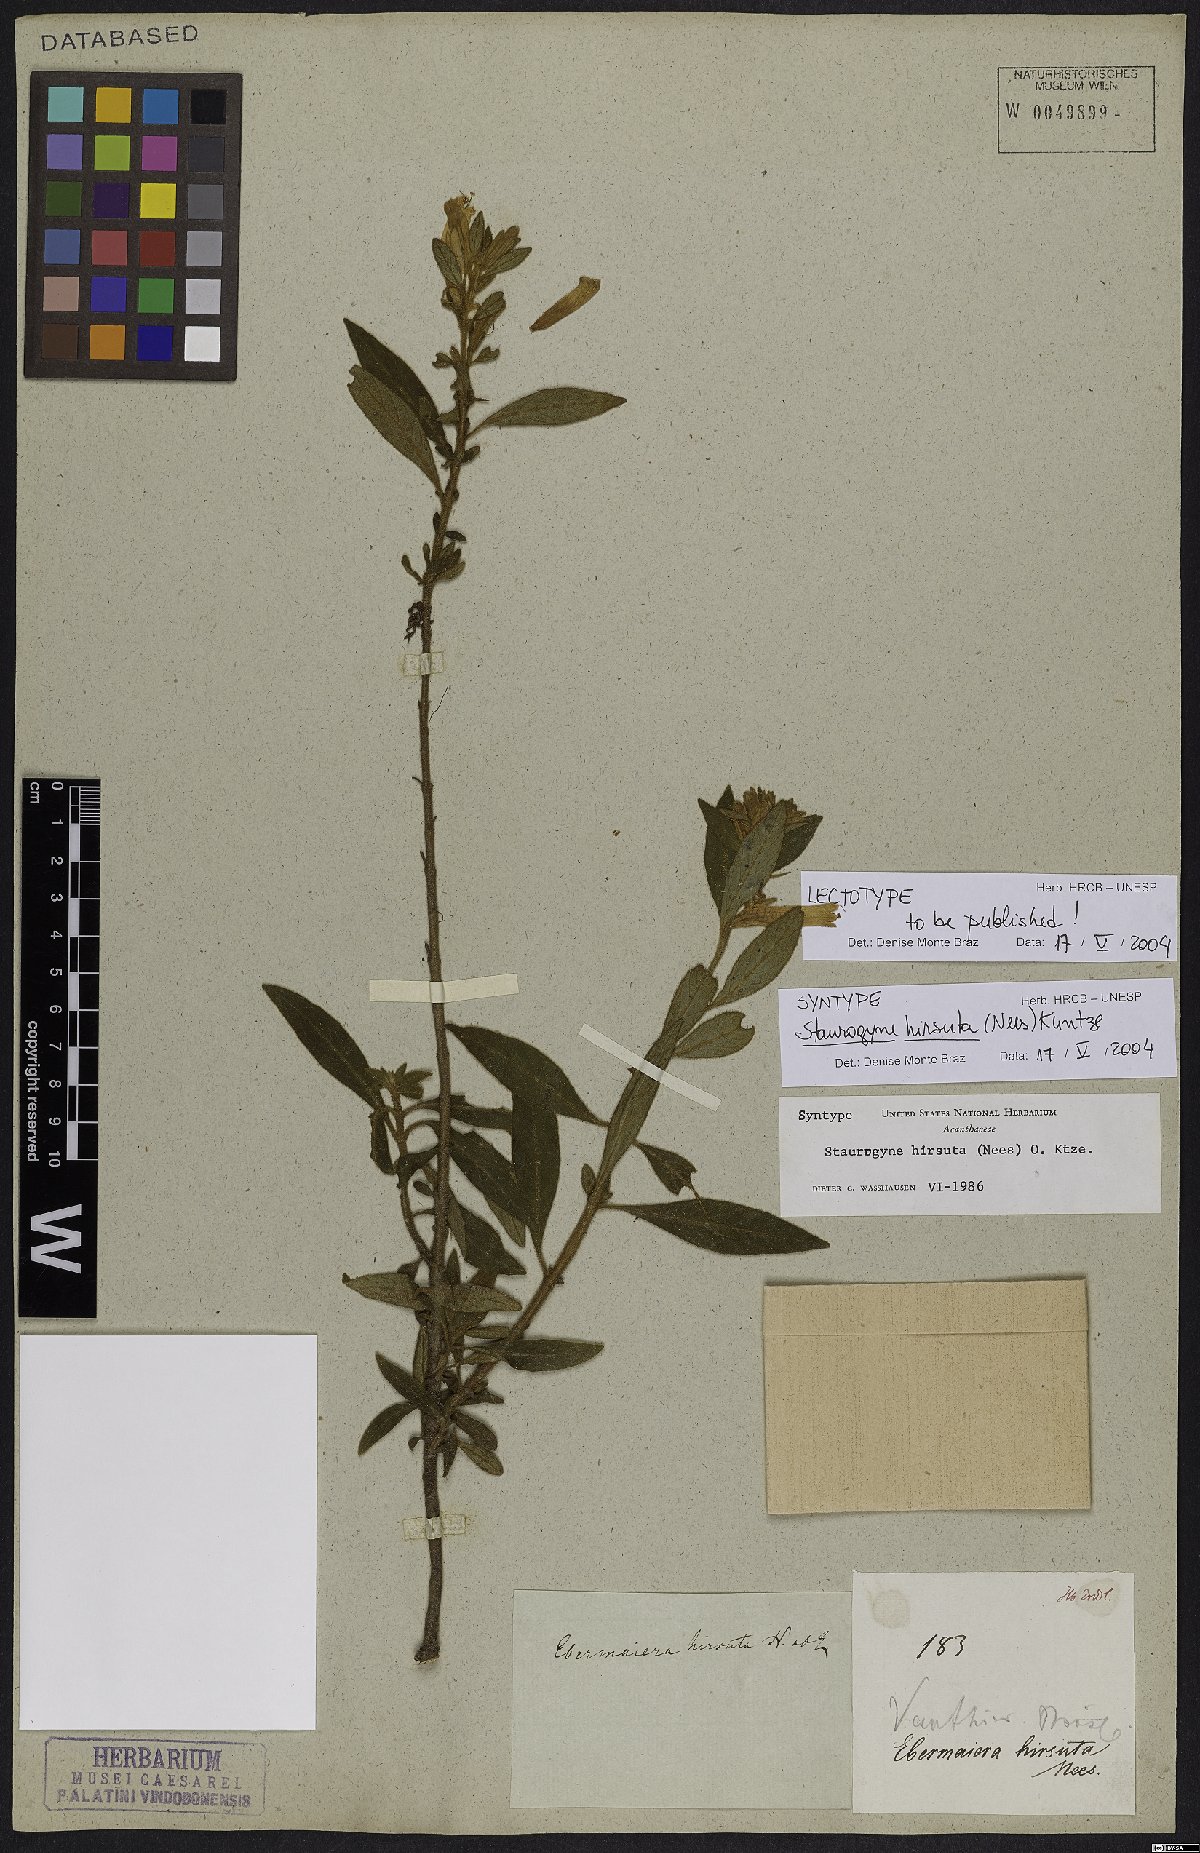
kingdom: Plantae
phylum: Tracheophyta
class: Magnoliopsida
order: Lamiales
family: Acanthaceae
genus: Staurogyne
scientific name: Staurogyne hirsuta
